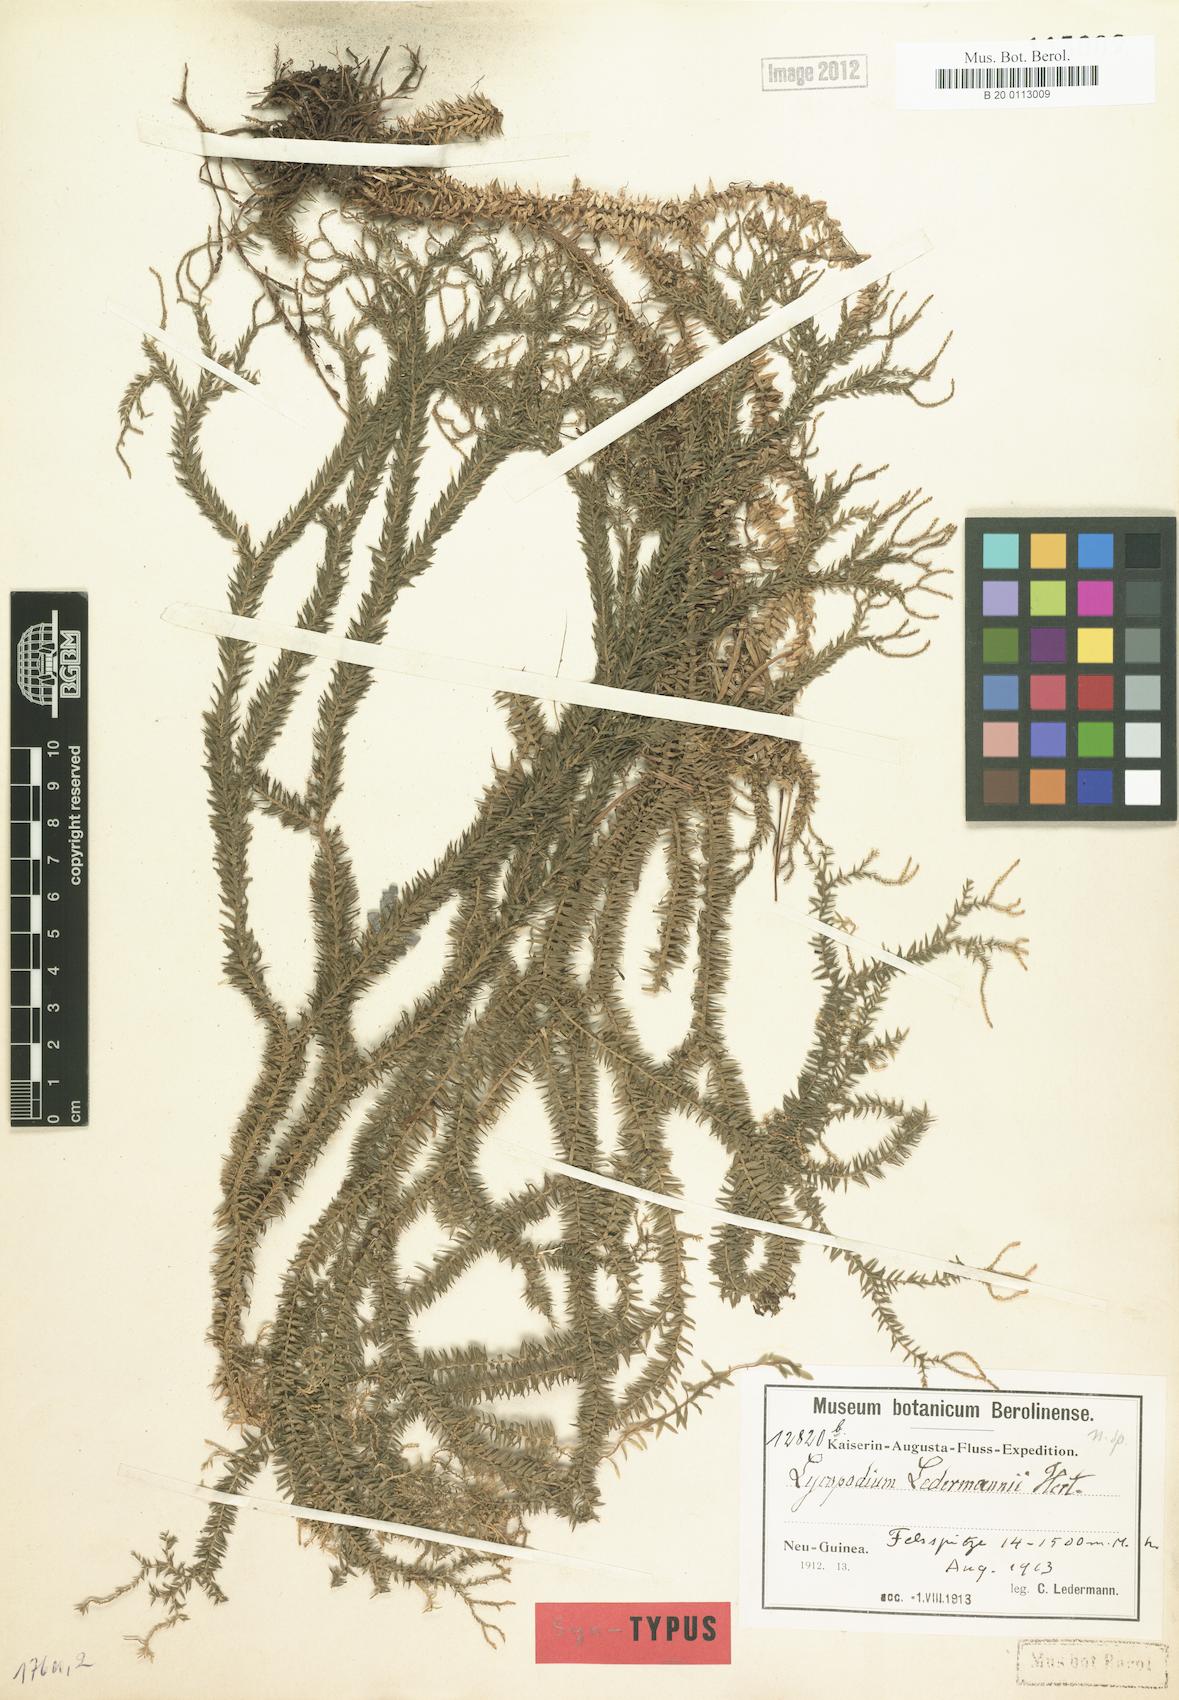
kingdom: Plantae
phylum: Tracheophyta
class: Lycopodiopsida
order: Lycopodiales
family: Lycopodiaceae
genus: Phlegmariurus
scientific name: Phlegmariurus ledermannii
